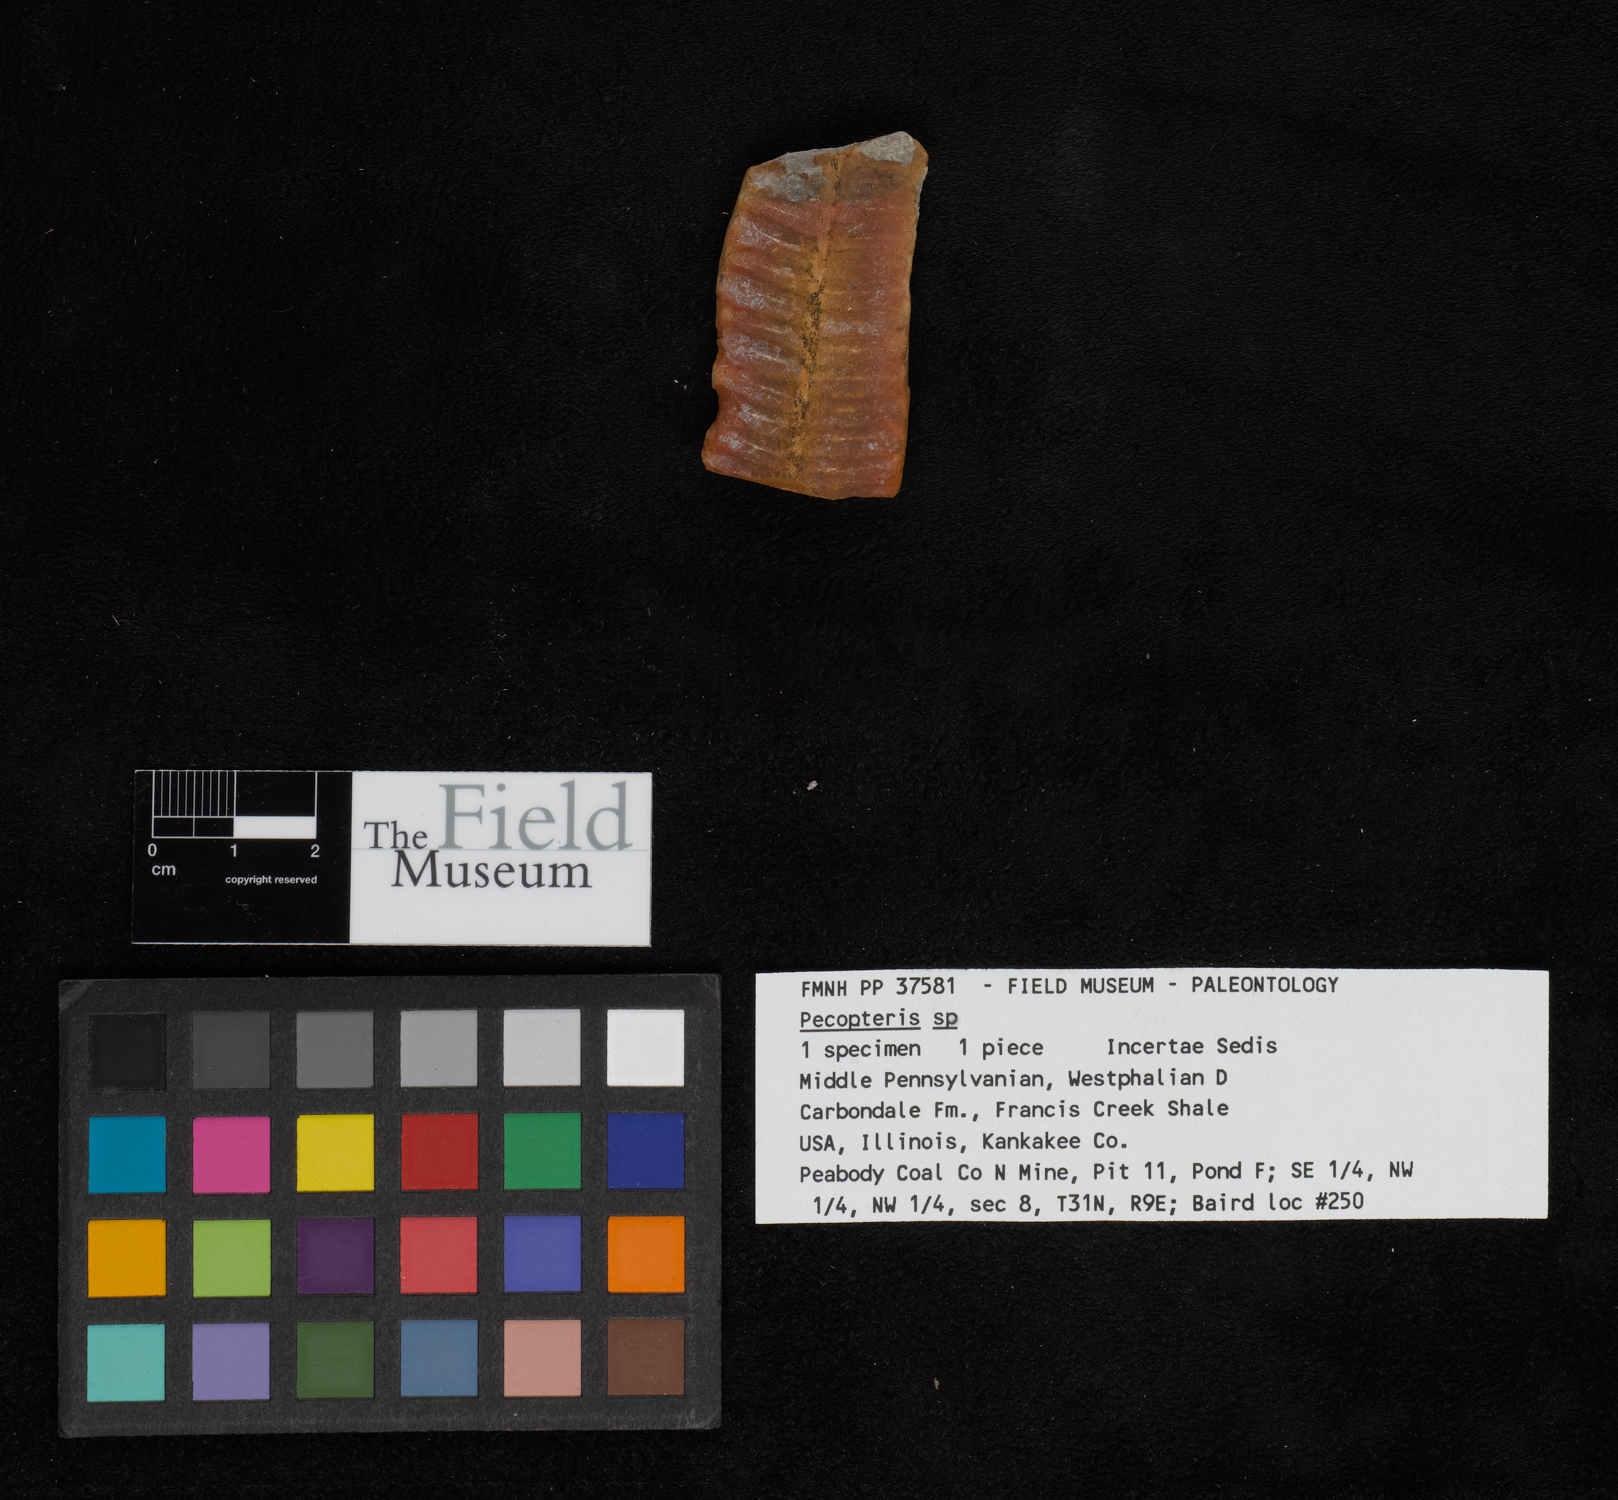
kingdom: Plantae
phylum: Tracheophyta
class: Polypodiopsida
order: Marattiales
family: Asterothecaceae
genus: Pecopteris
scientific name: Pecopteris
